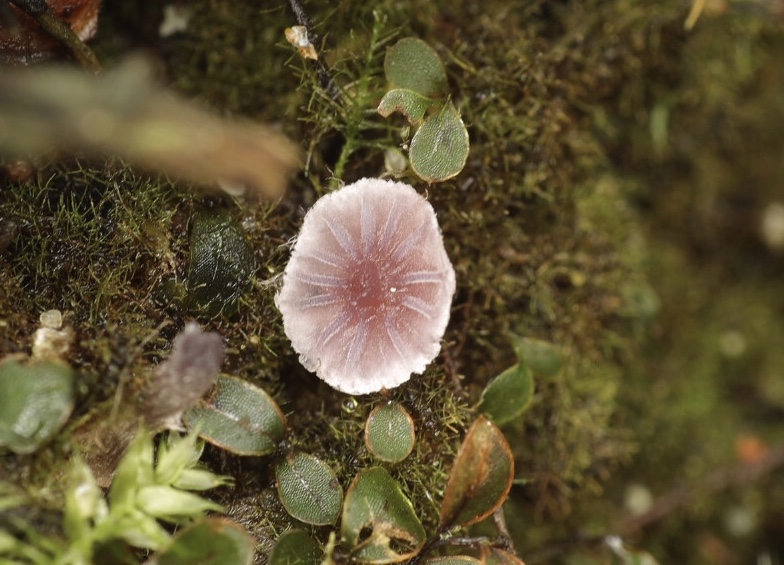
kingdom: Fungi
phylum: Basidiomycota
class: Agaricomycetes
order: Agaricales
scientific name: Agaricales
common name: champignonordenen
